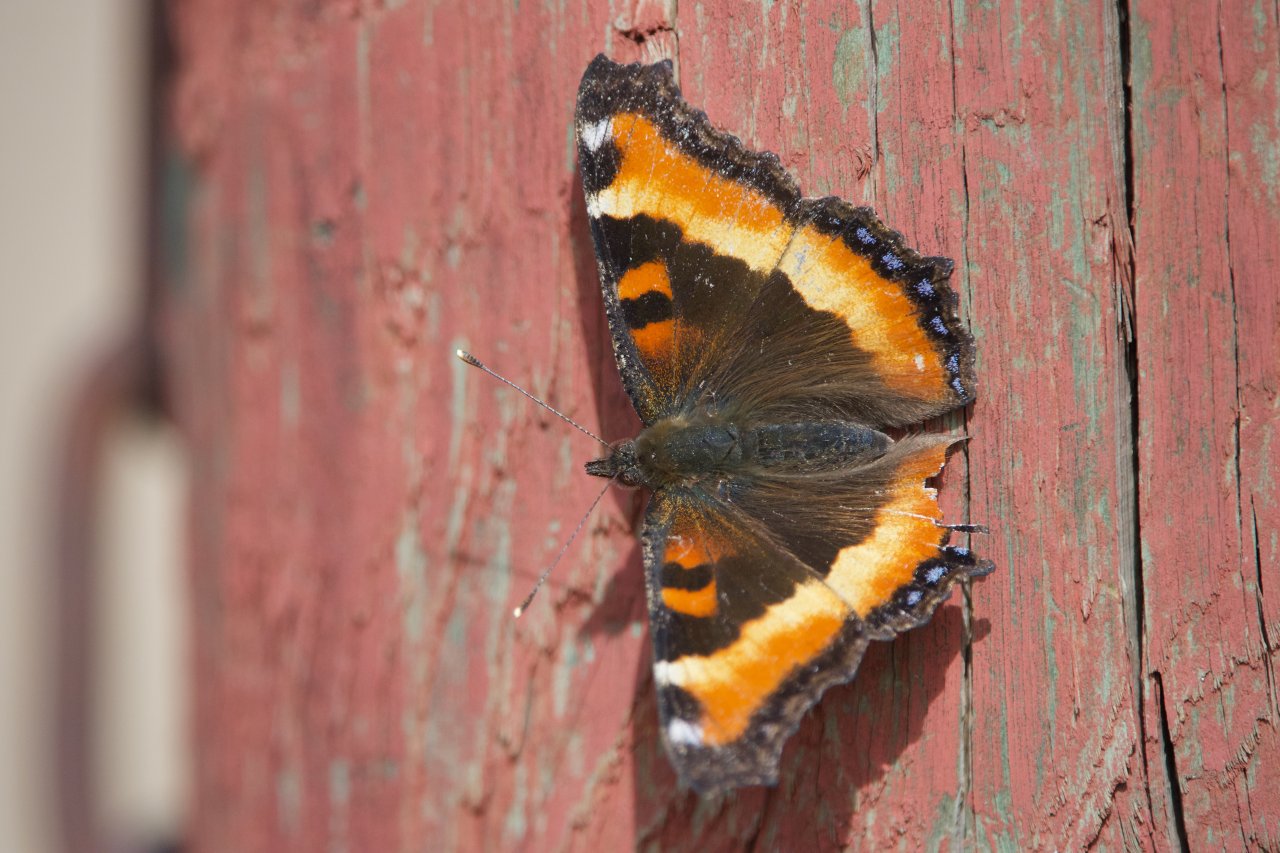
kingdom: Animalia
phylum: Arthropoda
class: Insecta
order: Lepidoptera
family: Nymphalidae
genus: Aglais
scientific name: Aglais milberti
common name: Milbert's Tortoiseshell
